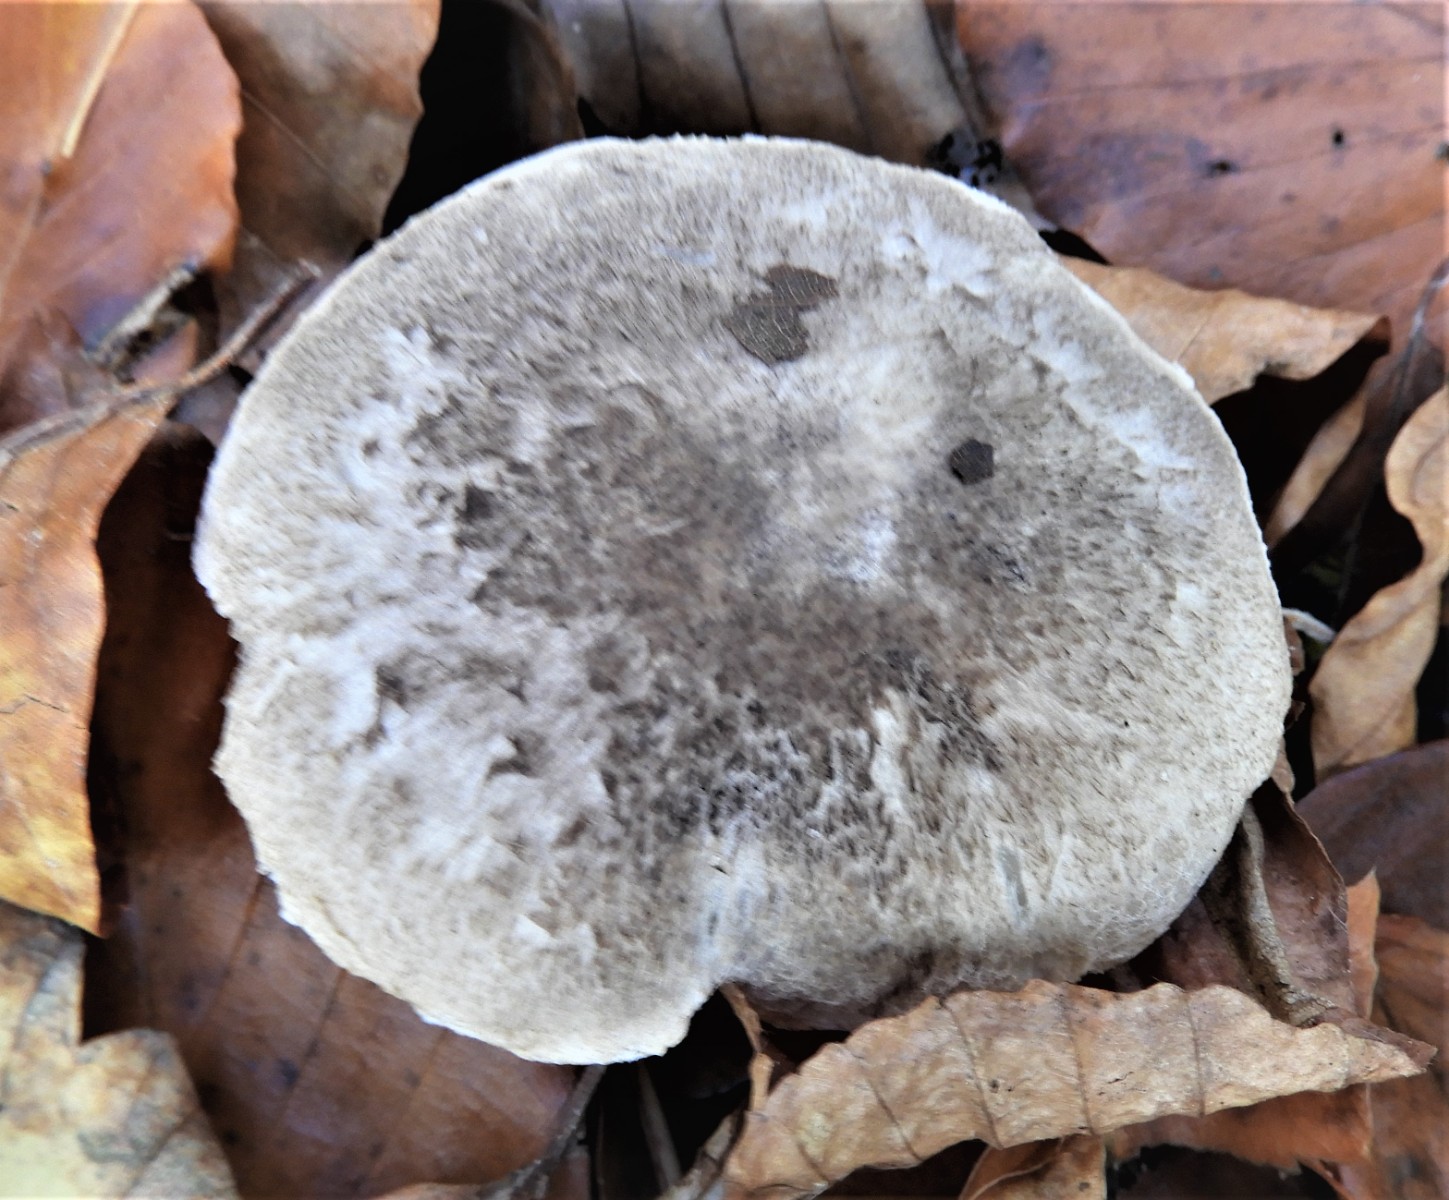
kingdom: Fungi
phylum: Basidiomycota
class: Agaricomycetes
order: Agaricales
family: Tricholomataceae
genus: Tricholoma
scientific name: Tricholoma scalpturatum
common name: gulplettet ridderhat
